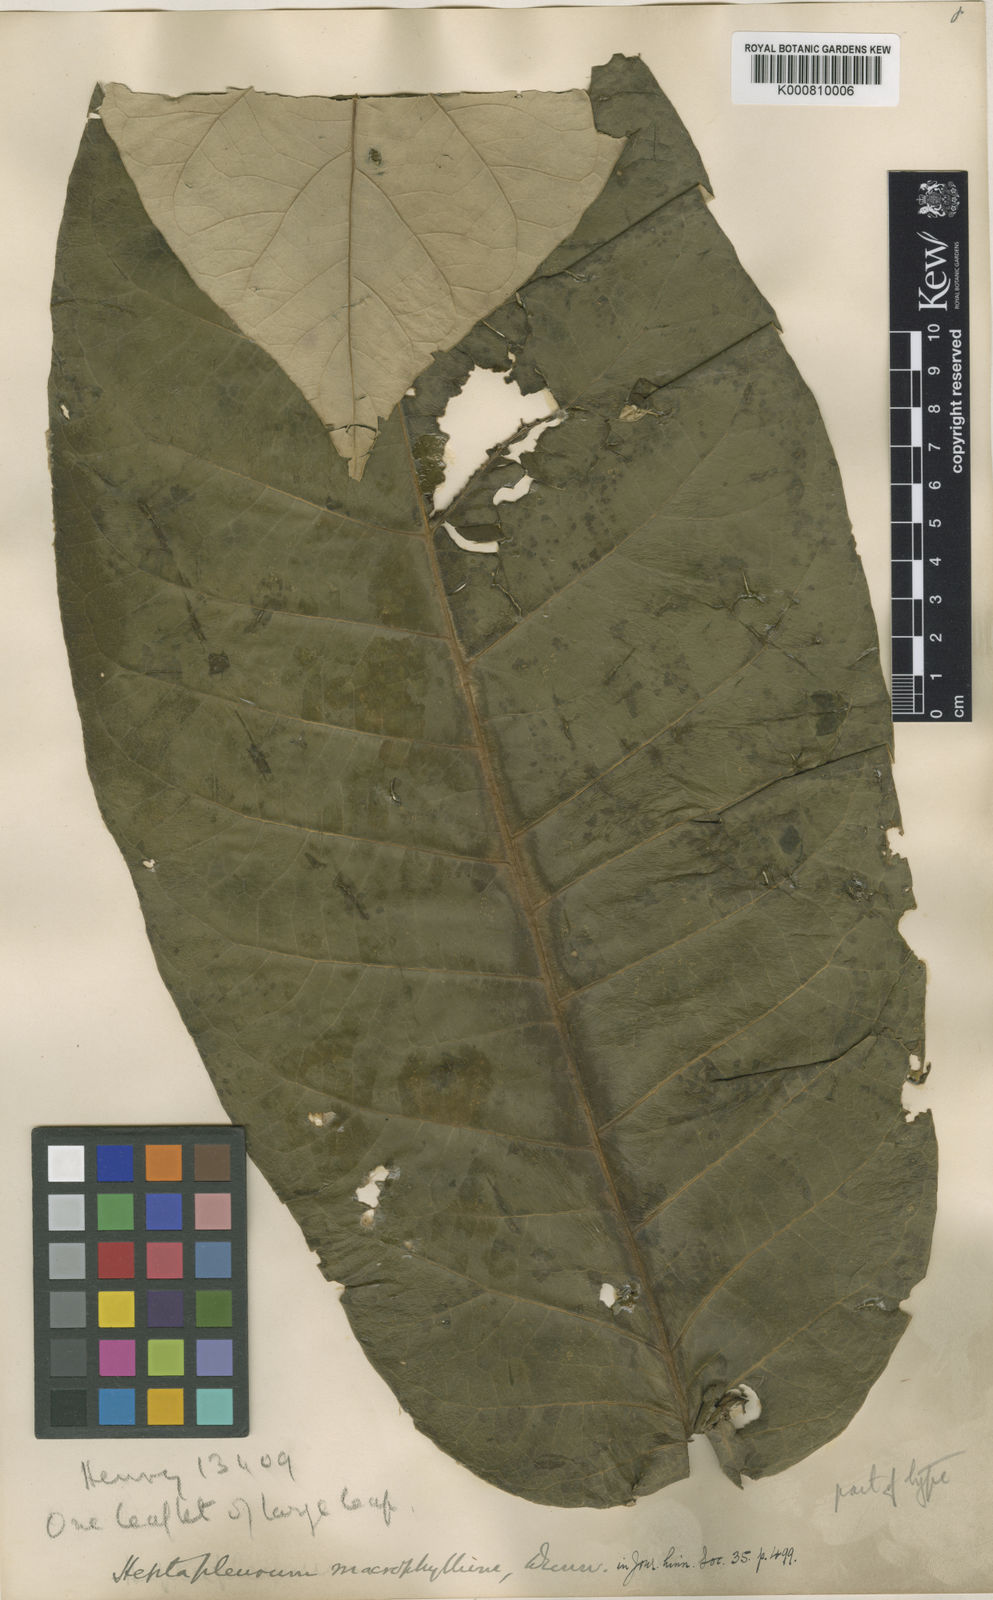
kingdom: Plantae
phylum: Tracheophyta
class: Magnoliopsida
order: Apiales
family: Araliaceae
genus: Heptapleurum
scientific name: Heptapleurum macrophyllum
